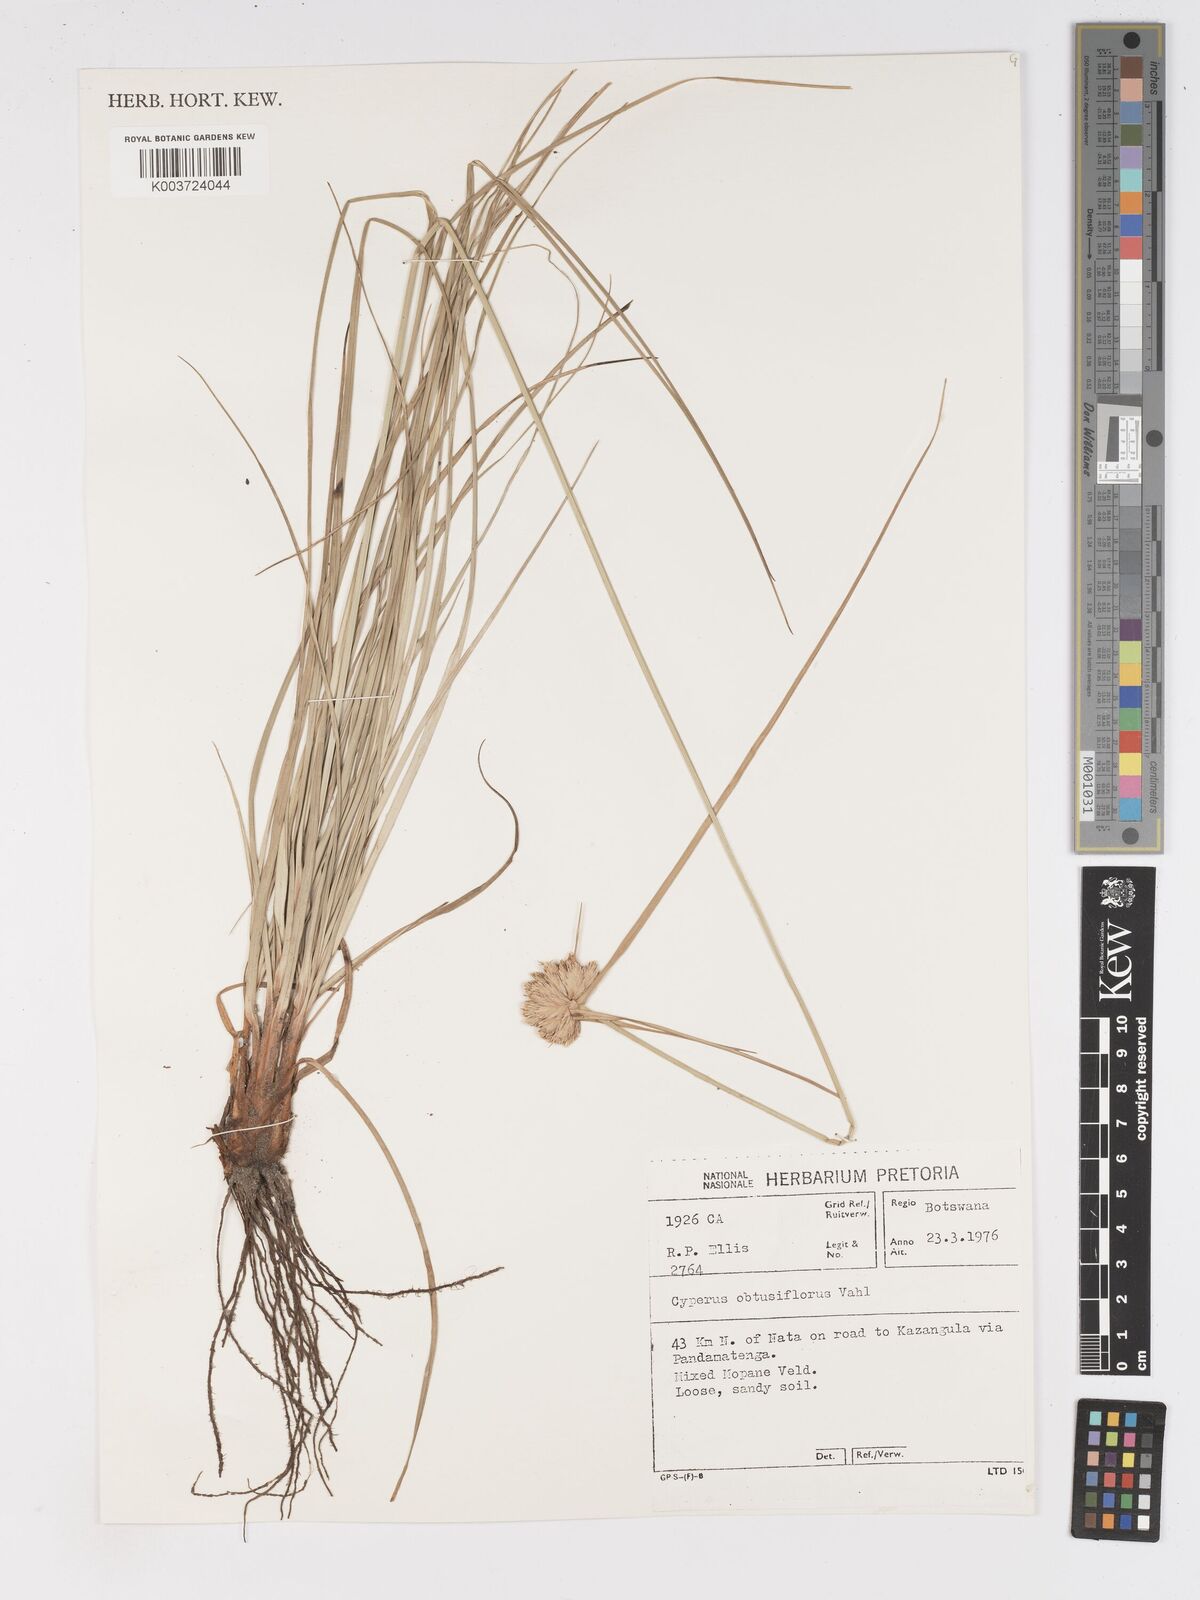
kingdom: Plantae
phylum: Tracheophyta
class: Liliopsida
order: Poales
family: Cyperaceae
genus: Cyperus
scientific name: Cyperus niveus
